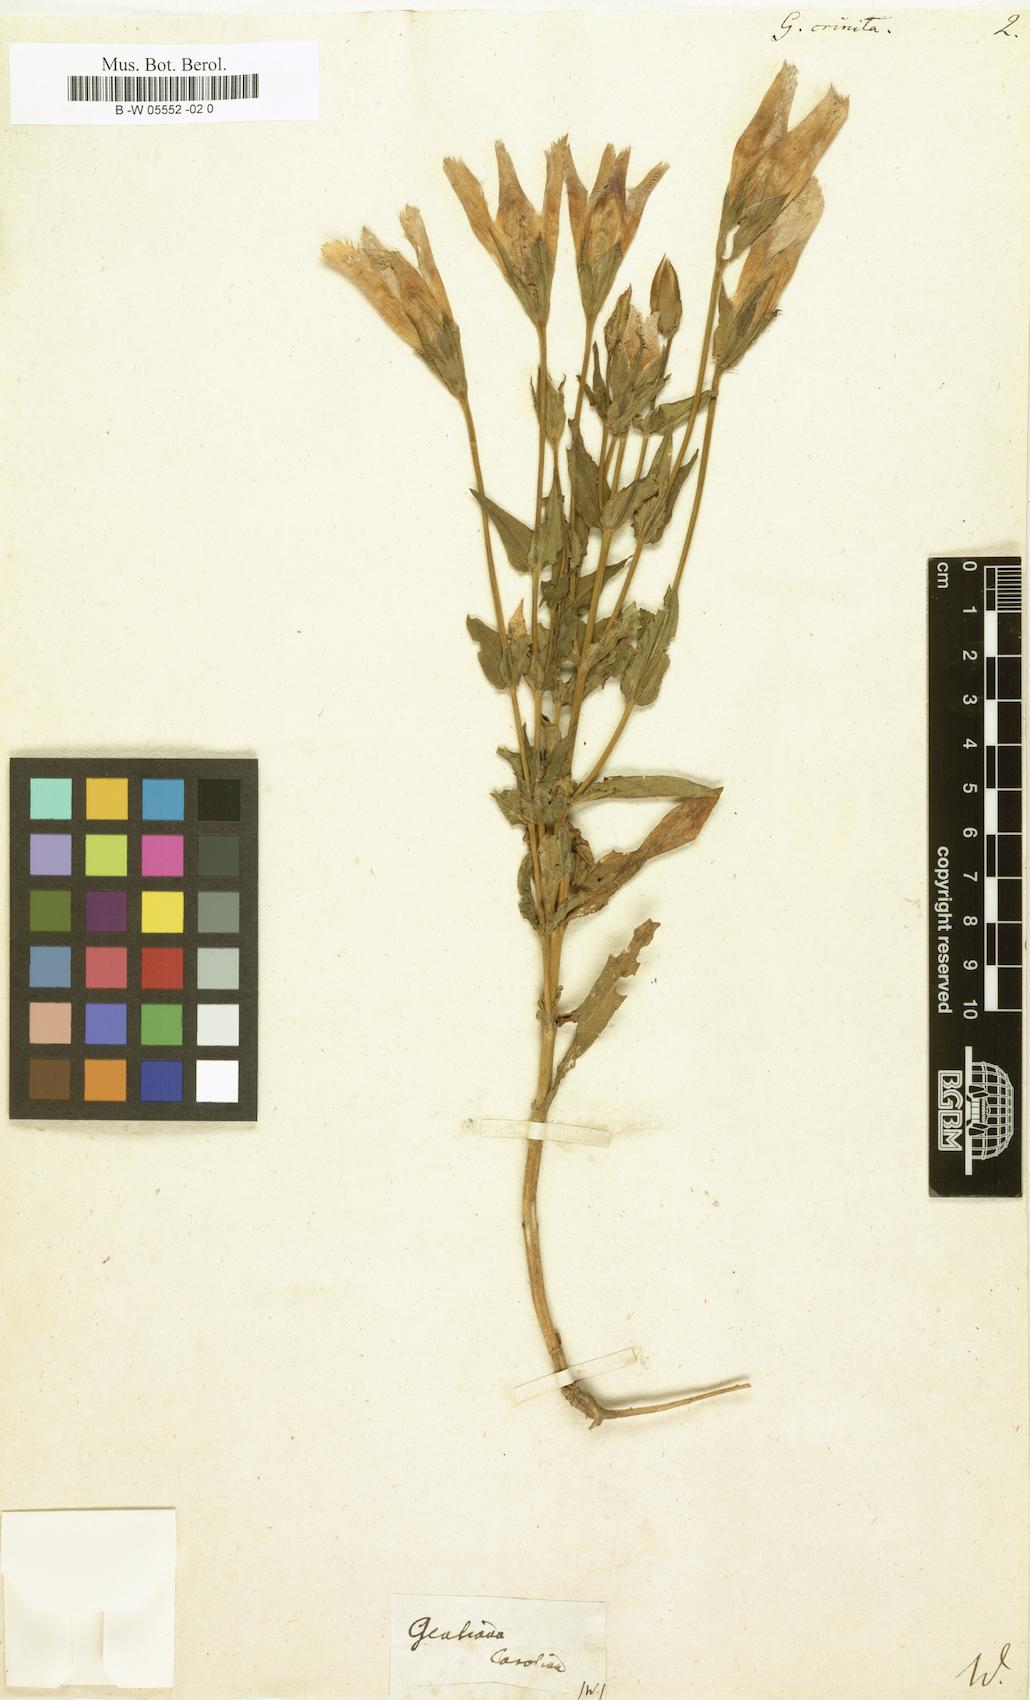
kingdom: Plantae
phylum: Tracheophyta
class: Magnoliopsida
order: Gentianales
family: Gentianaceae
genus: Gentianopsis
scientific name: Gentianopsis crinita
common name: Fringed-gentian
